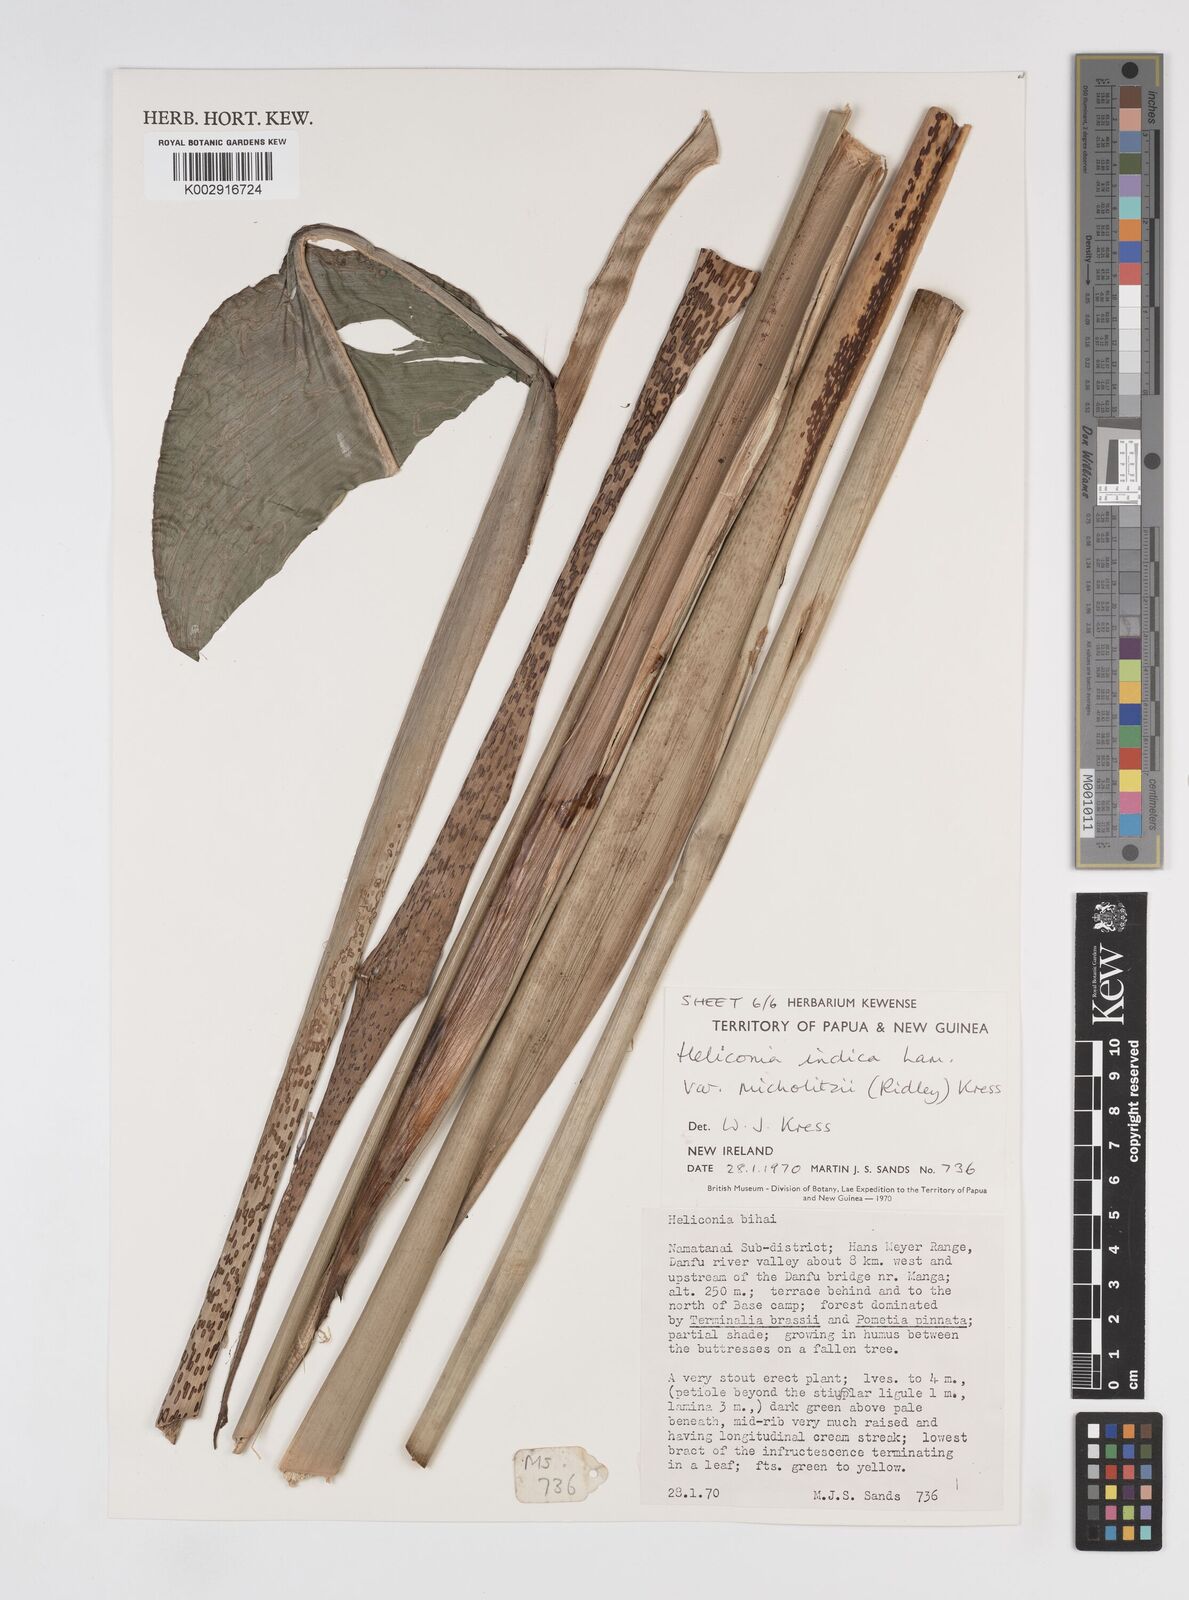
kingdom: Plantae
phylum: Tracheophyta
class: Liliopsida
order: Zingiberales
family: Heliconiaceae
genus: Heliconia
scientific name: Heliconia indica
